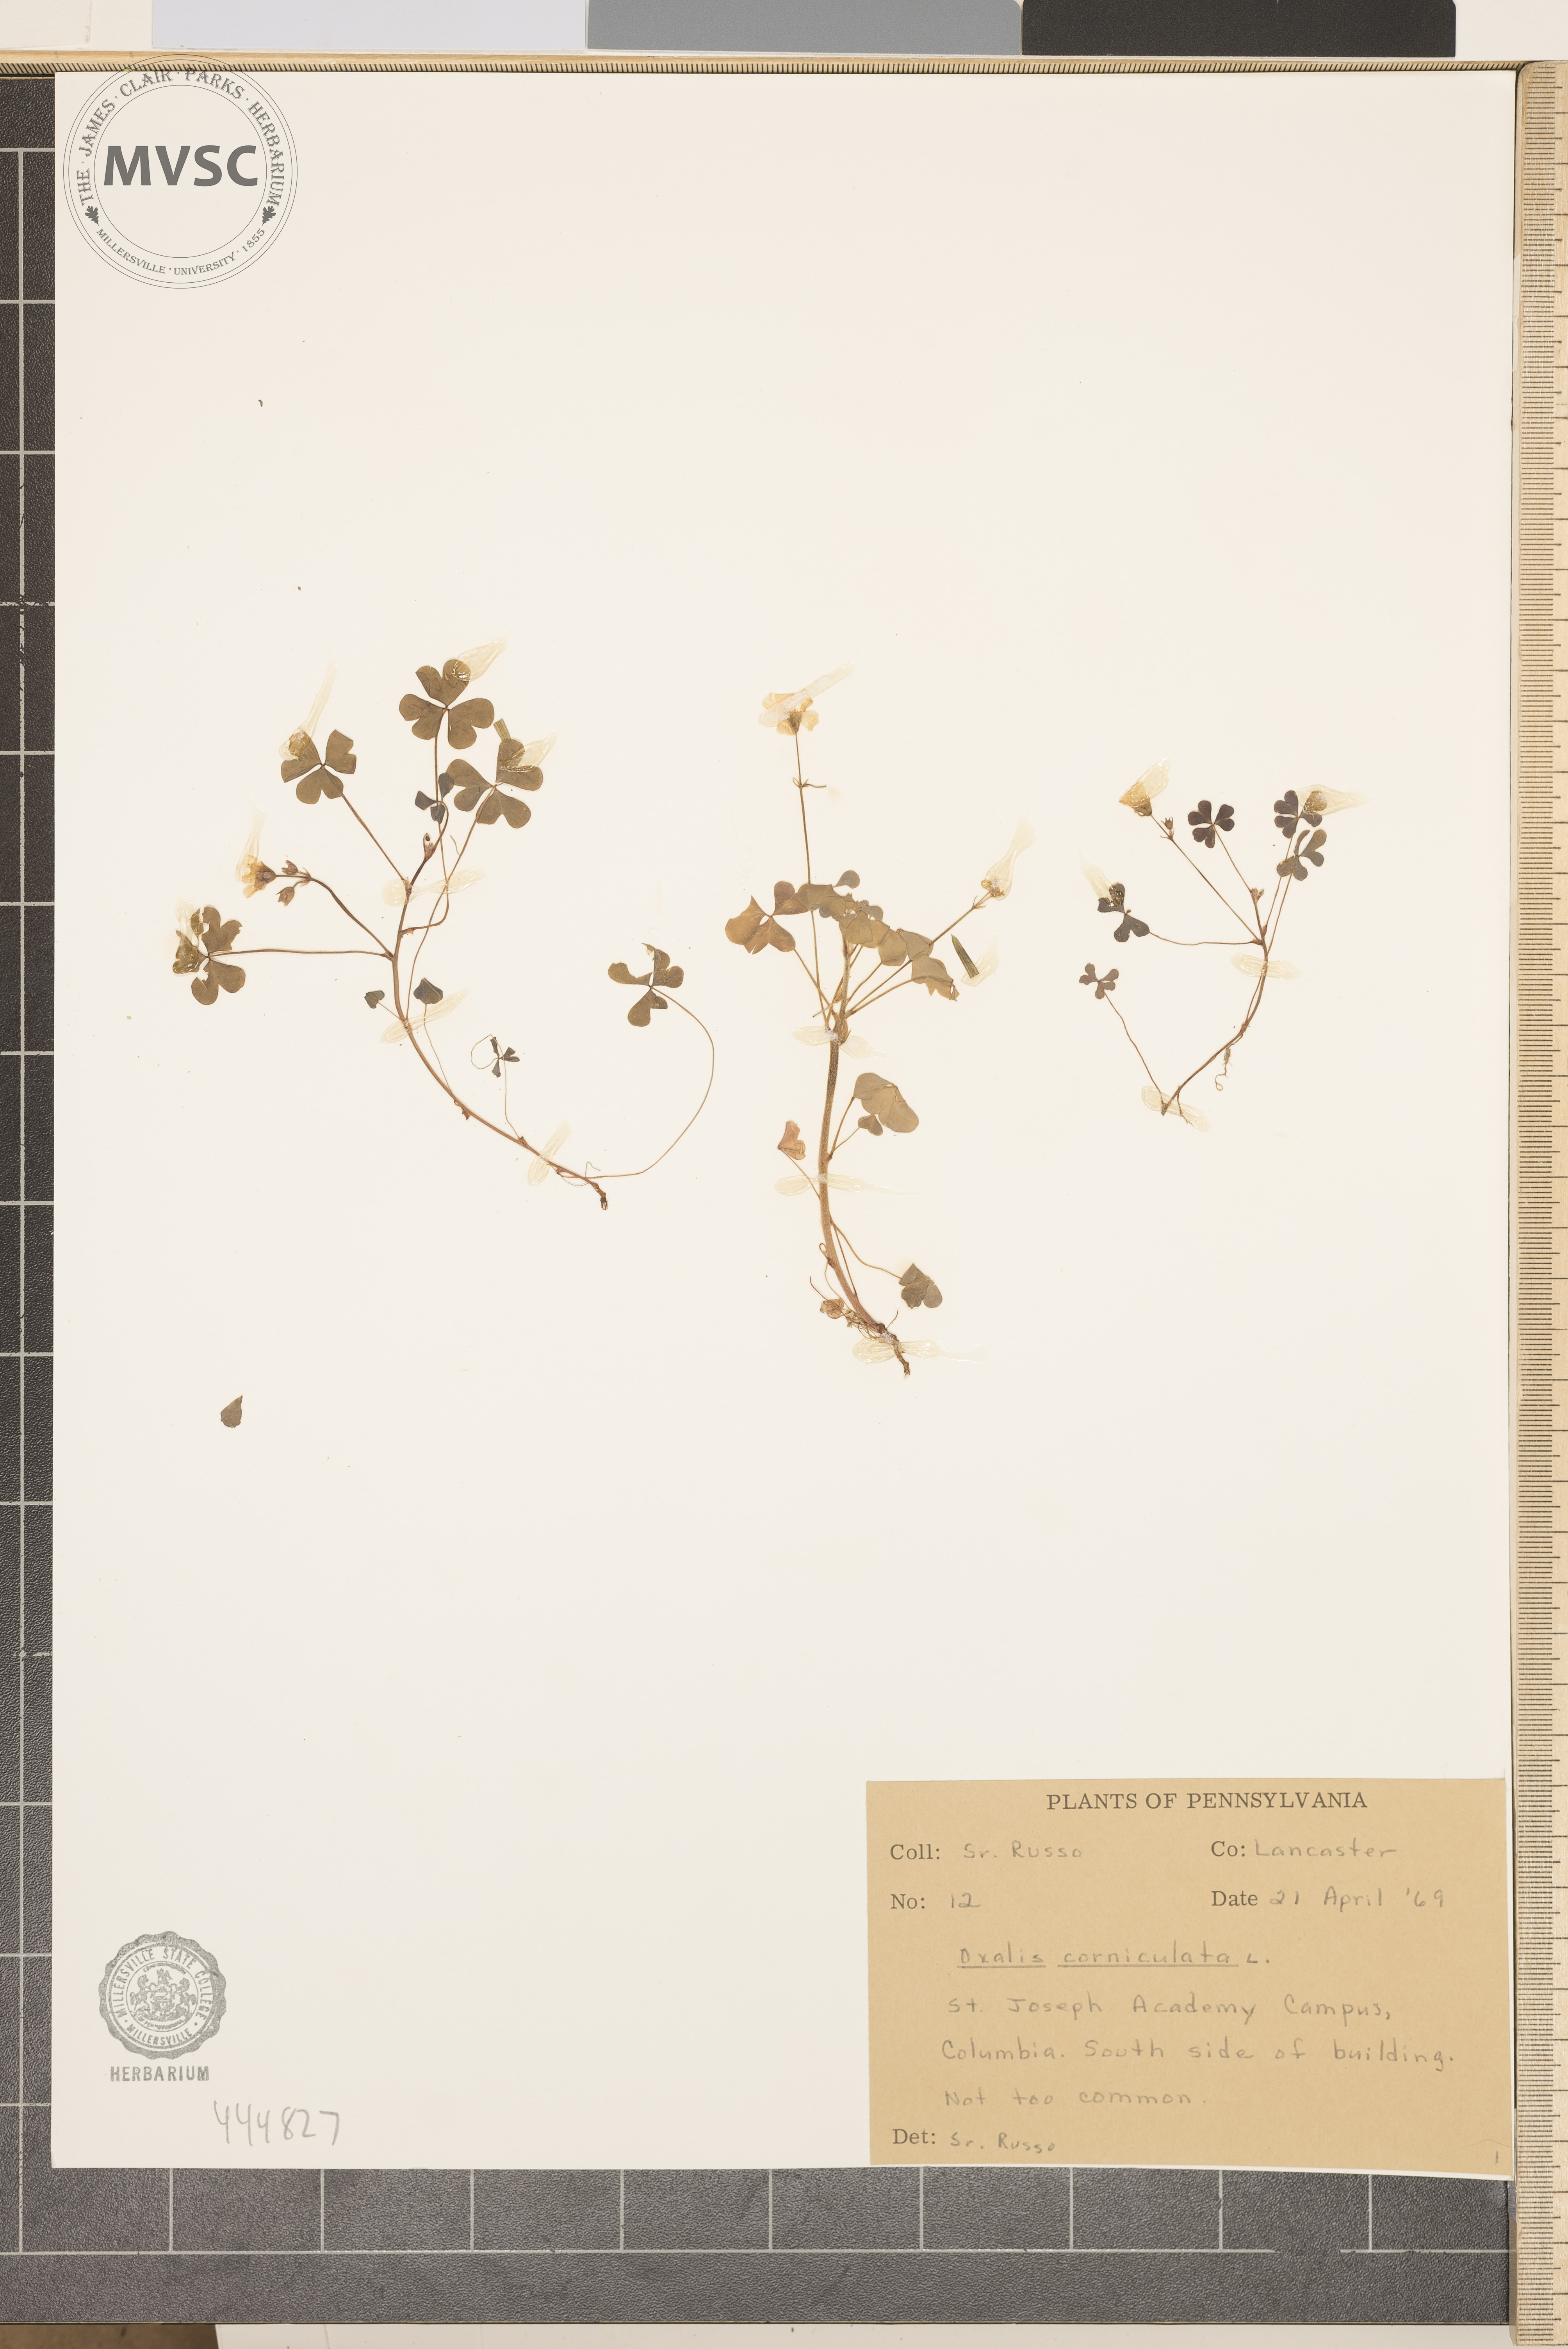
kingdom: Plantae
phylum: Tracheophyta
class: Magnoliopsida
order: Oxalidales
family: Oxalidaceae
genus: Oxalis
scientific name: Oxalis corniculata
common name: Procumbent yellow-sorrel
